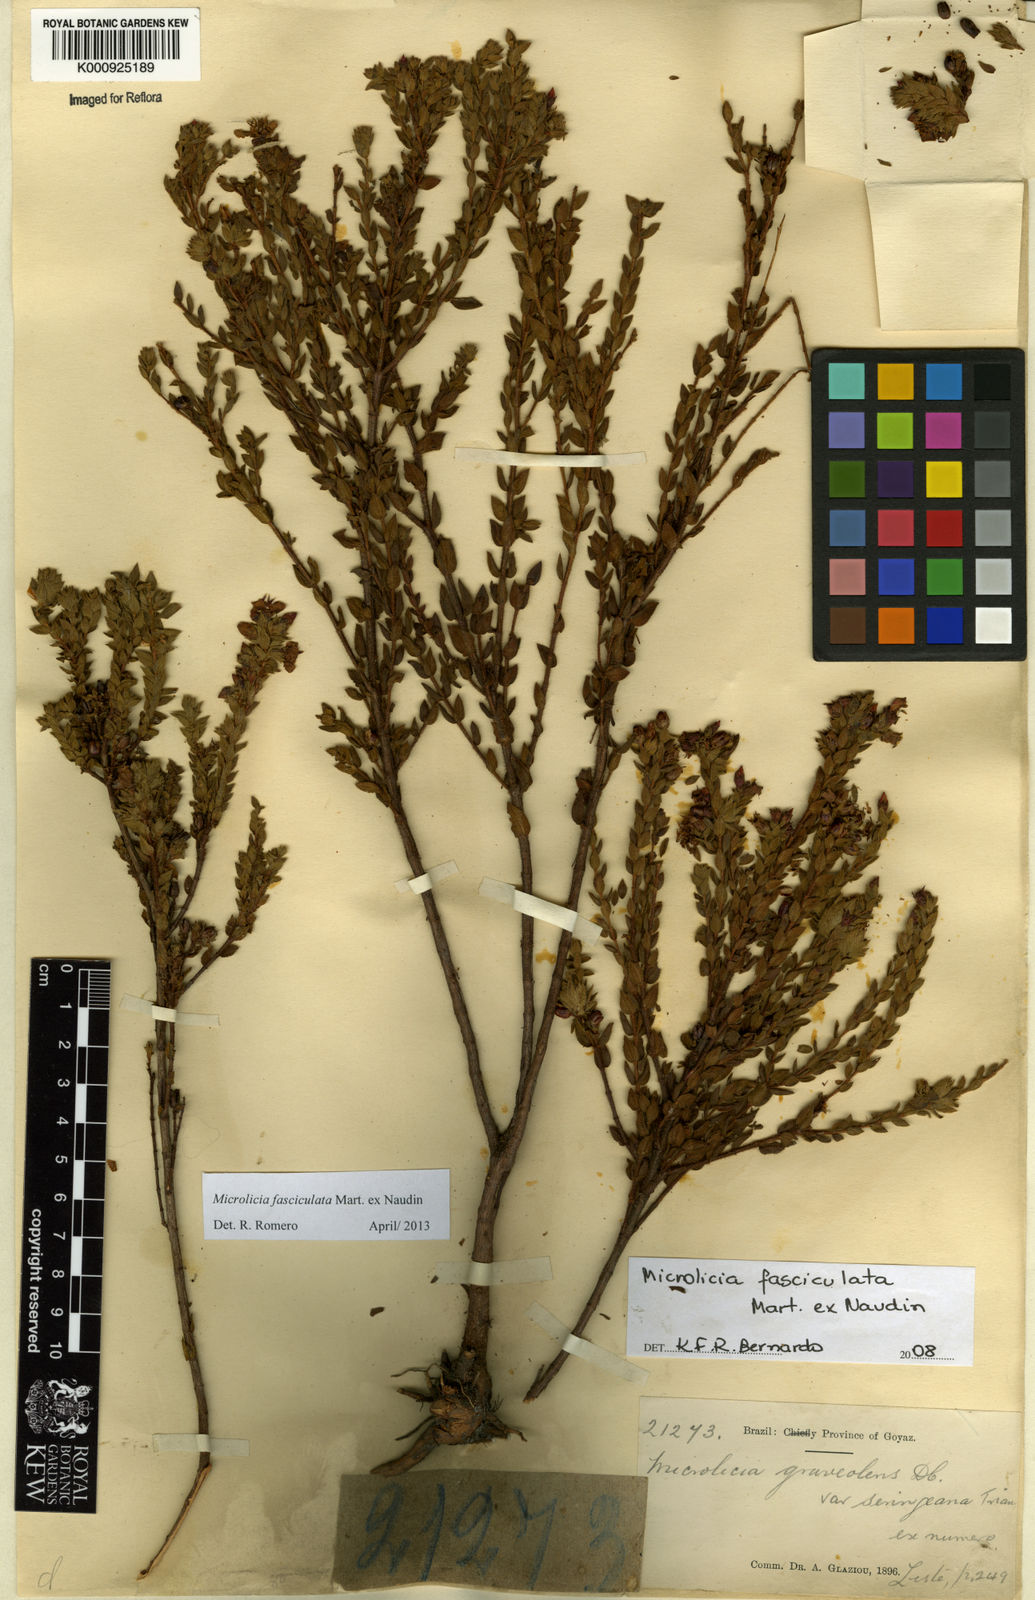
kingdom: Plantae
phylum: Tracheophyta
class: Magnoliopsida
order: Myrtales
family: Melastomataceae
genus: Microlicia
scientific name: Microlicia fasciculata
